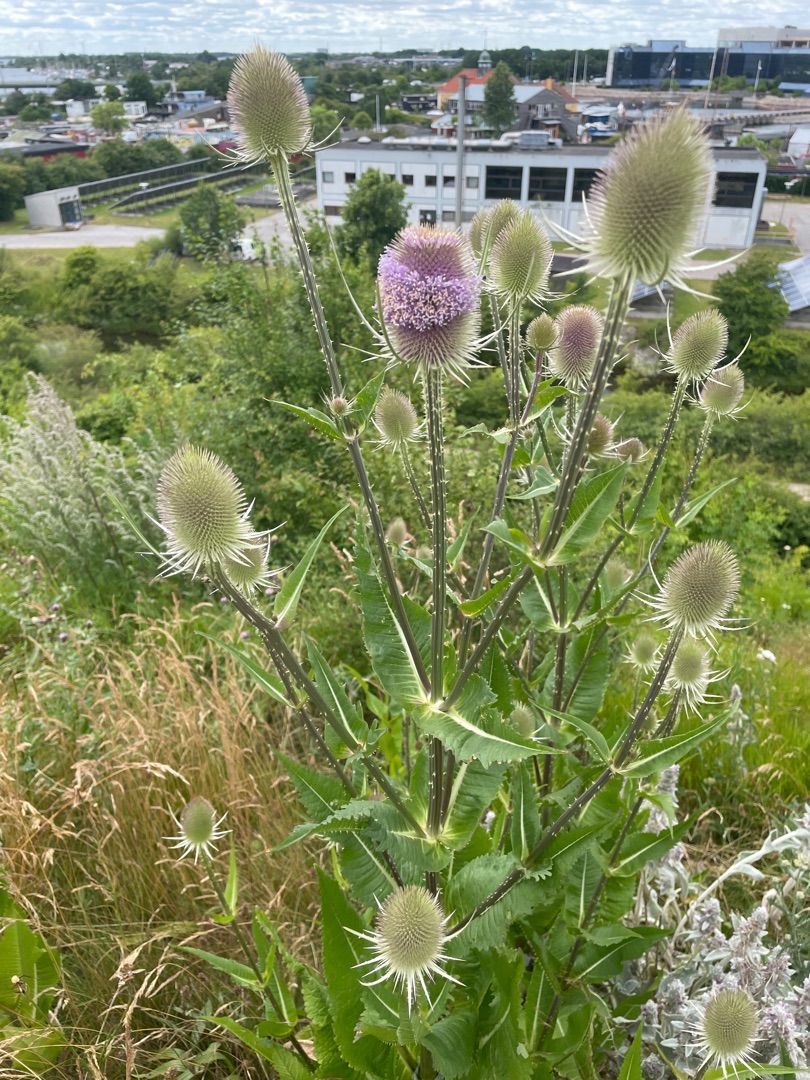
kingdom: Plantae
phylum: Tracheophyta
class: Magnoliopsida
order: Dipsacales
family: Caprifoliaceae
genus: Dipsacus
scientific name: Dipsacus fullonum
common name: Gærde-kartebolle
